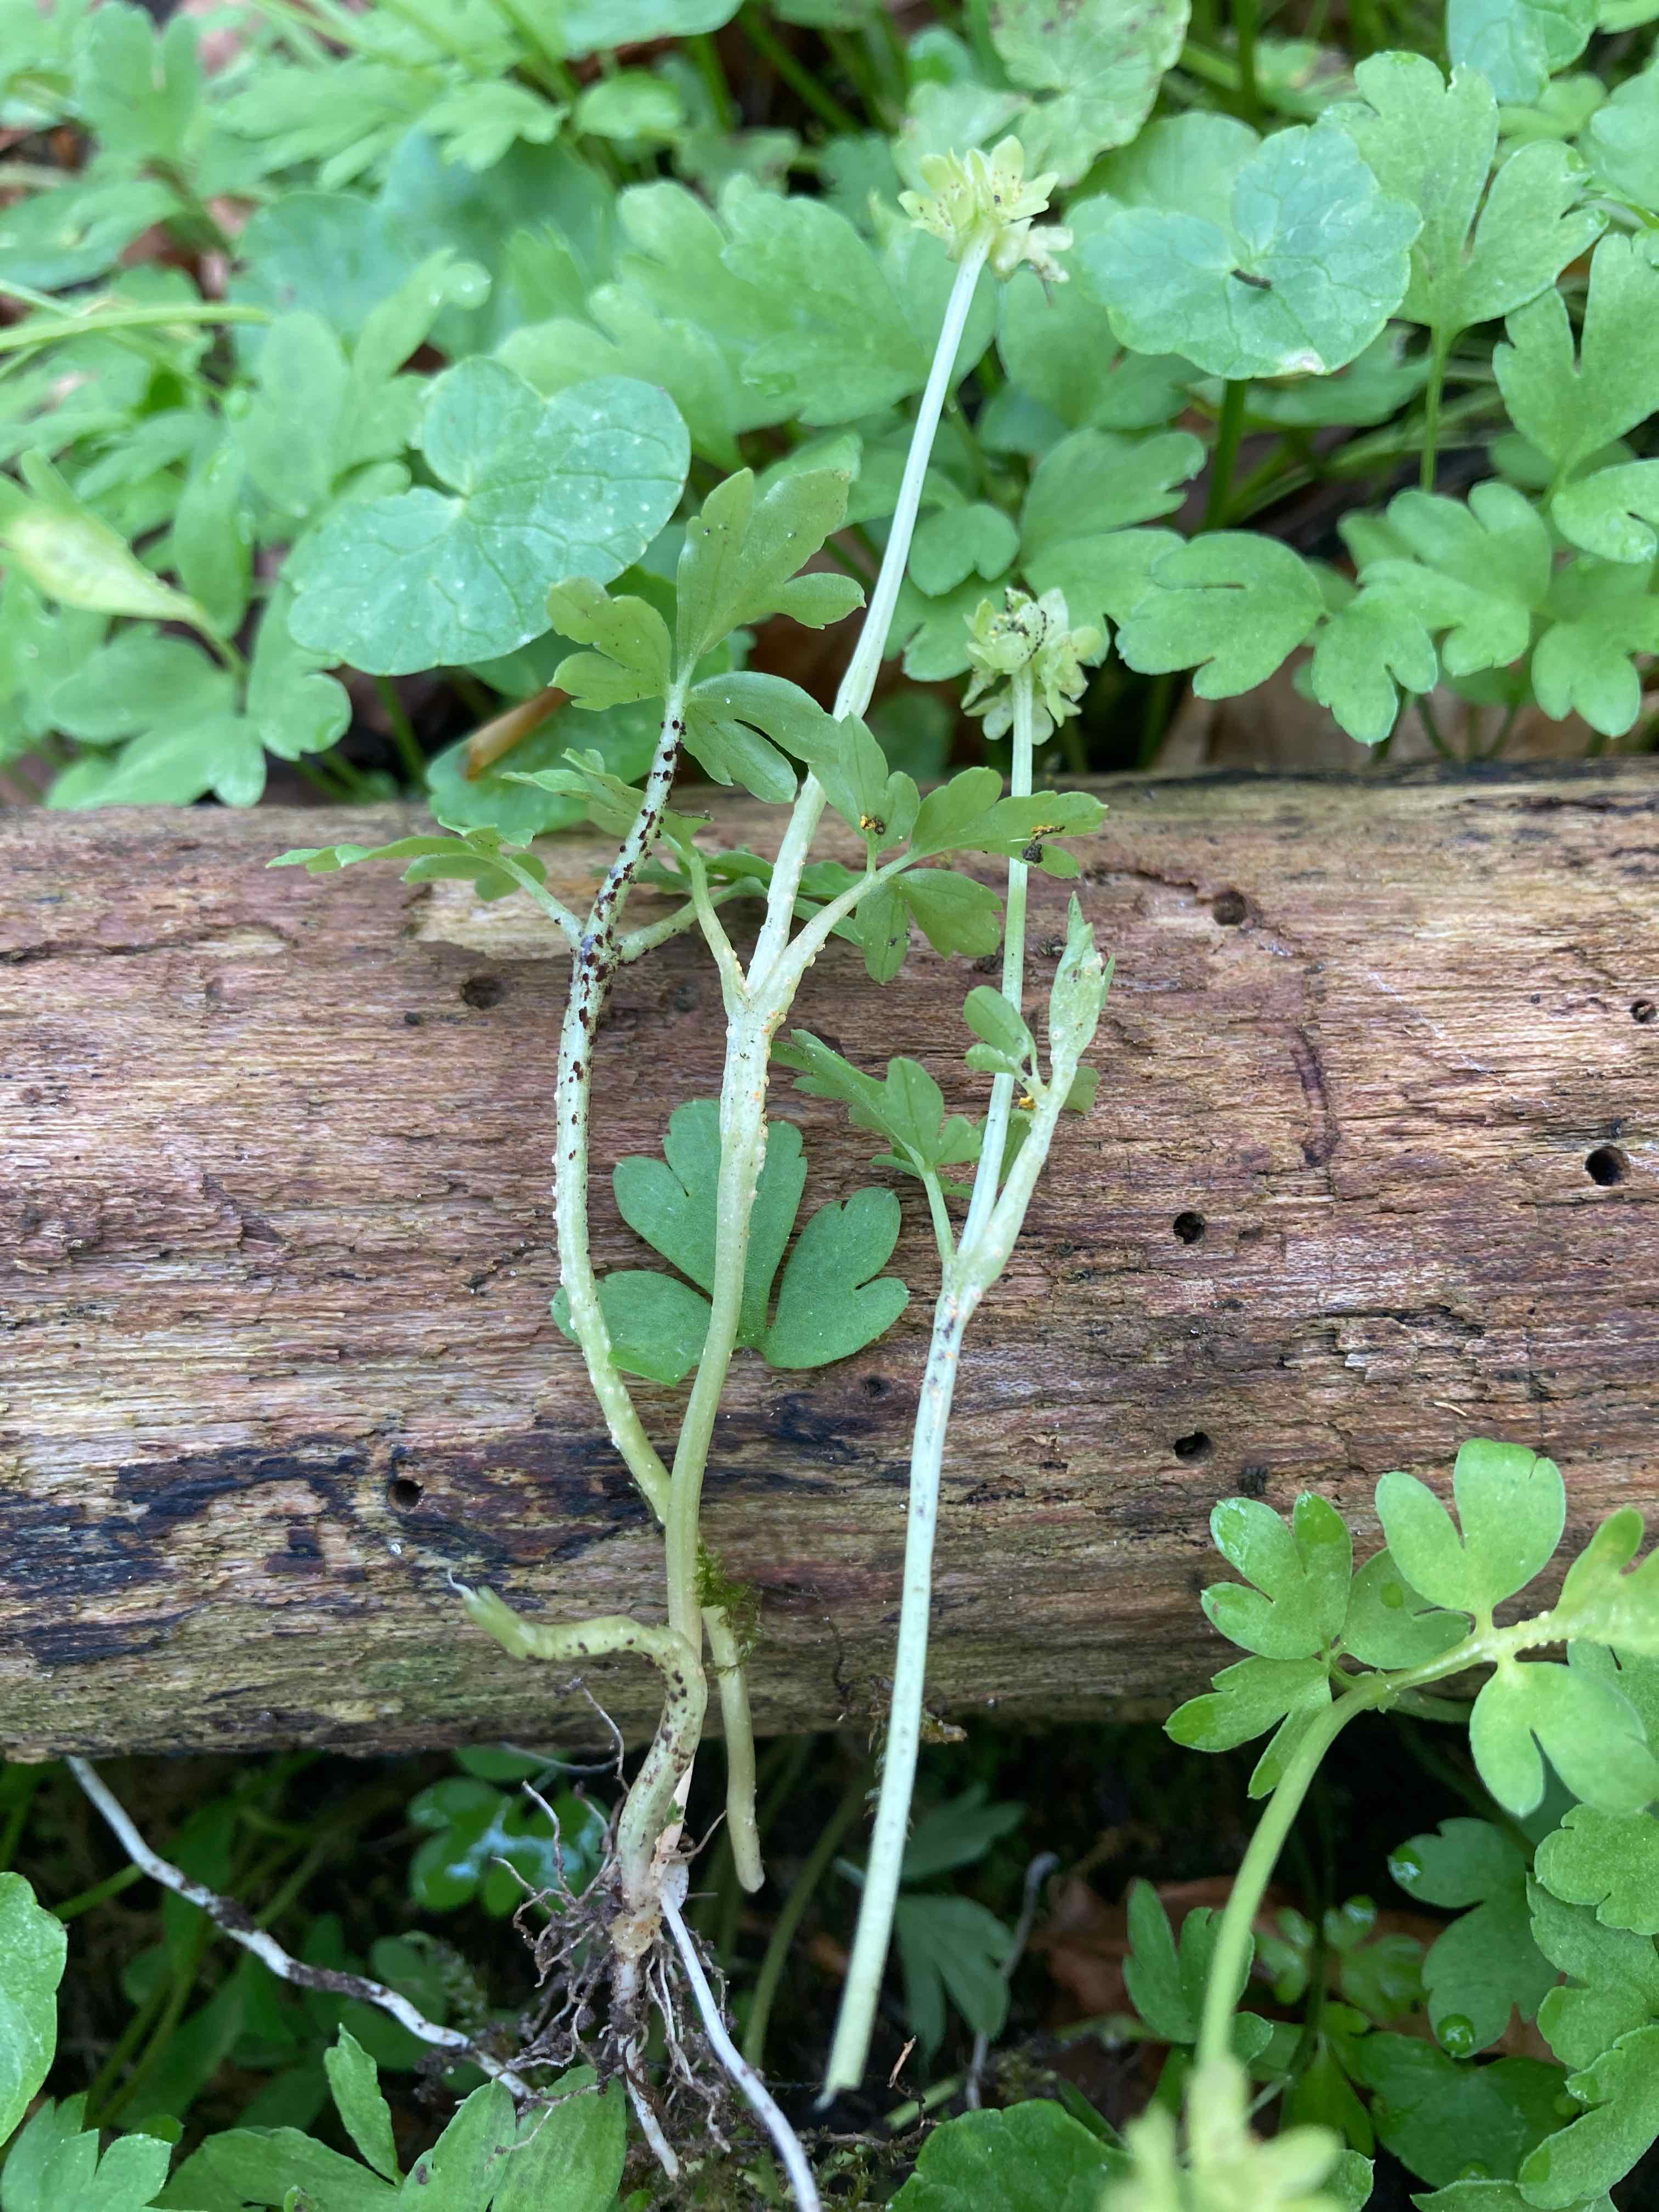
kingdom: Fungi
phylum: Basidiomycota
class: Pucciniomycetes
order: Pucciniales
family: Pucciniaceae
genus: Puccinia
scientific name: Puccinia albescens
